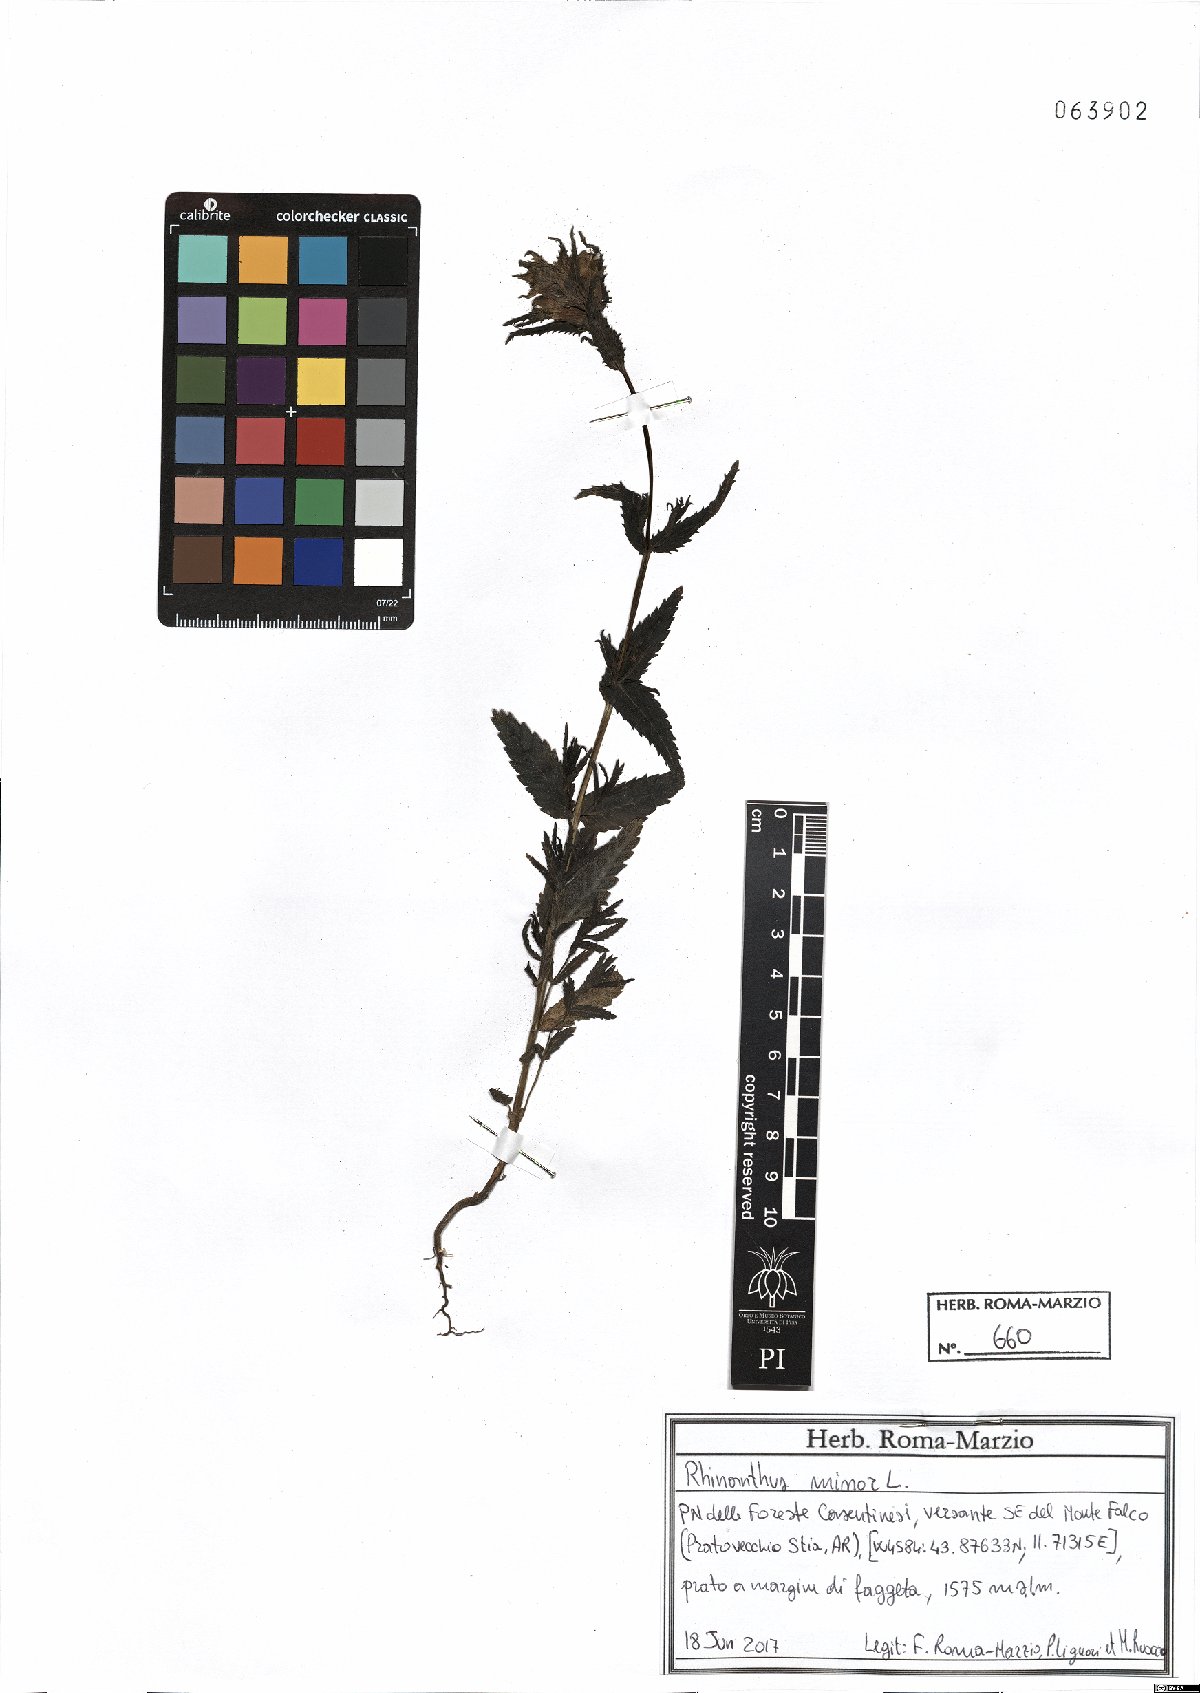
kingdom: Plantae
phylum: Tracheophyta
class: Magnoliopsida
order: Lamiales
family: Orobanchaceae
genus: Rhinanthus
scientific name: Rhinanthus minor
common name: Yellow-rattle
